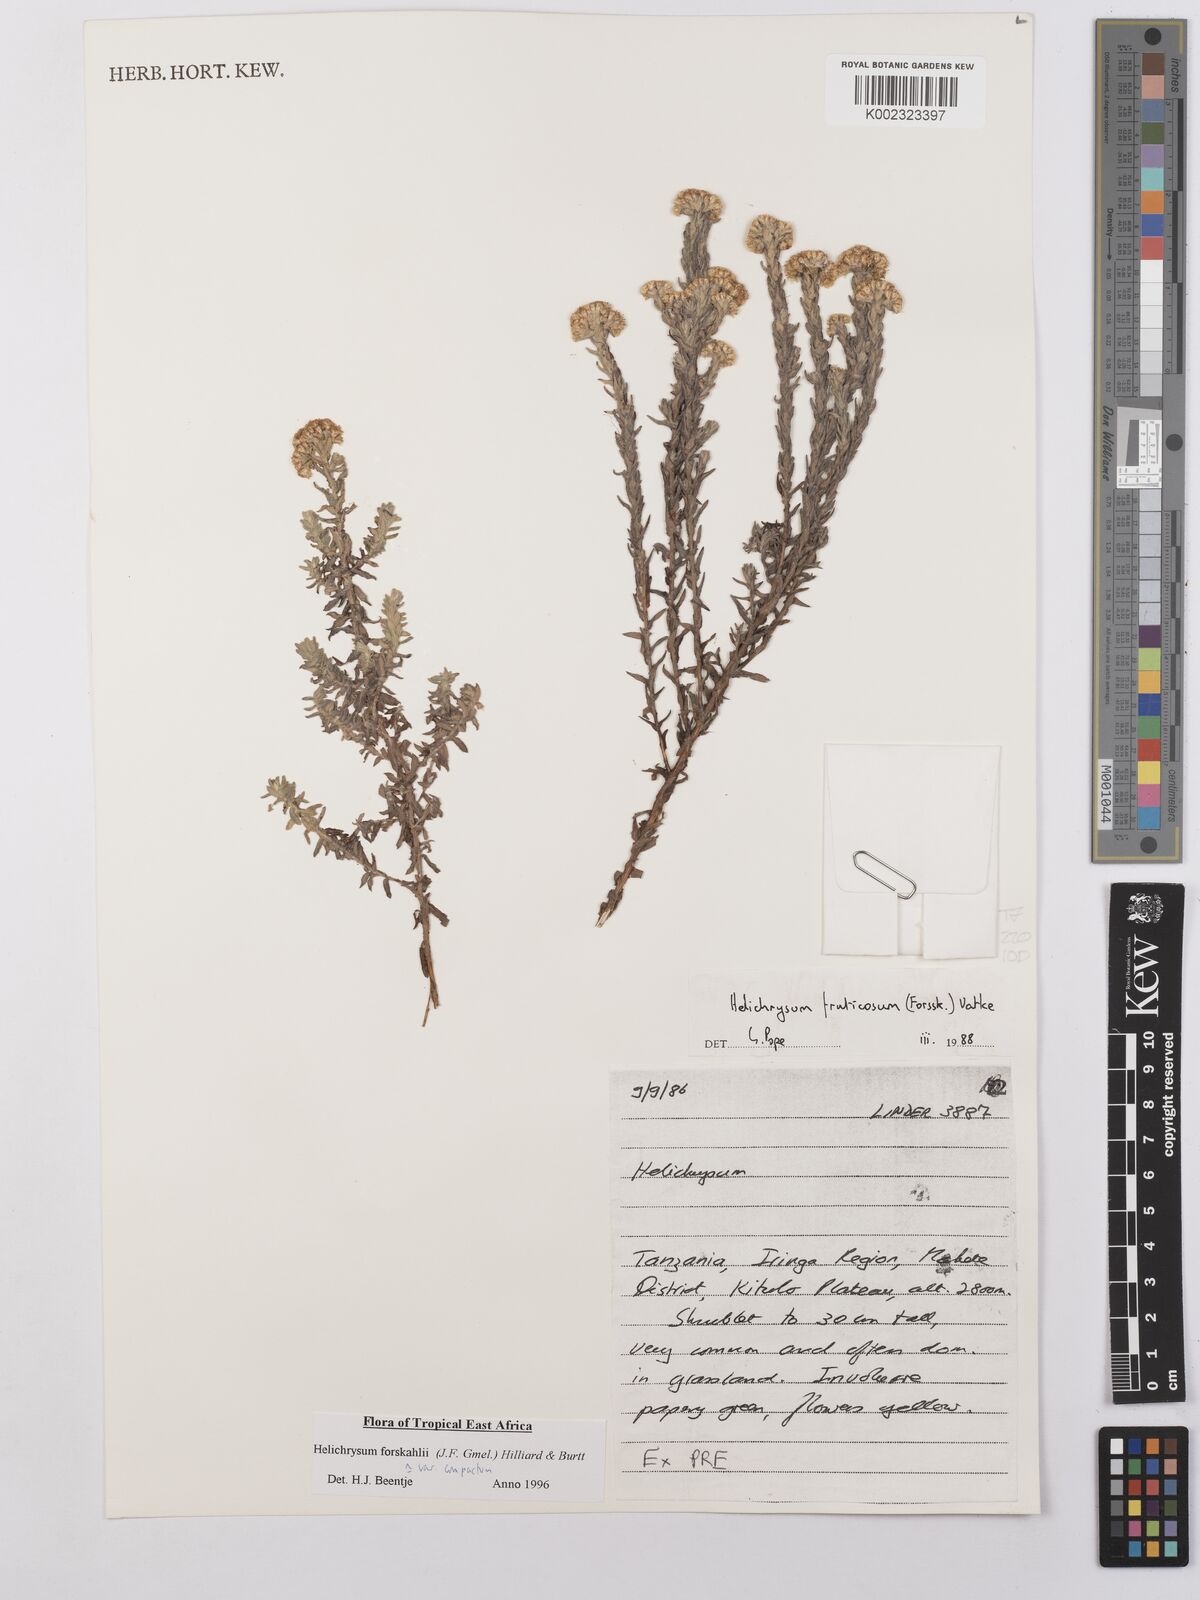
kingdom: Plantae
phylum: Tracheophyta
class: Magnoliopsida
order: Asterales
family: Asteraceae
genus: Helichrysum
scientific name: Helichrysum forskahlii
